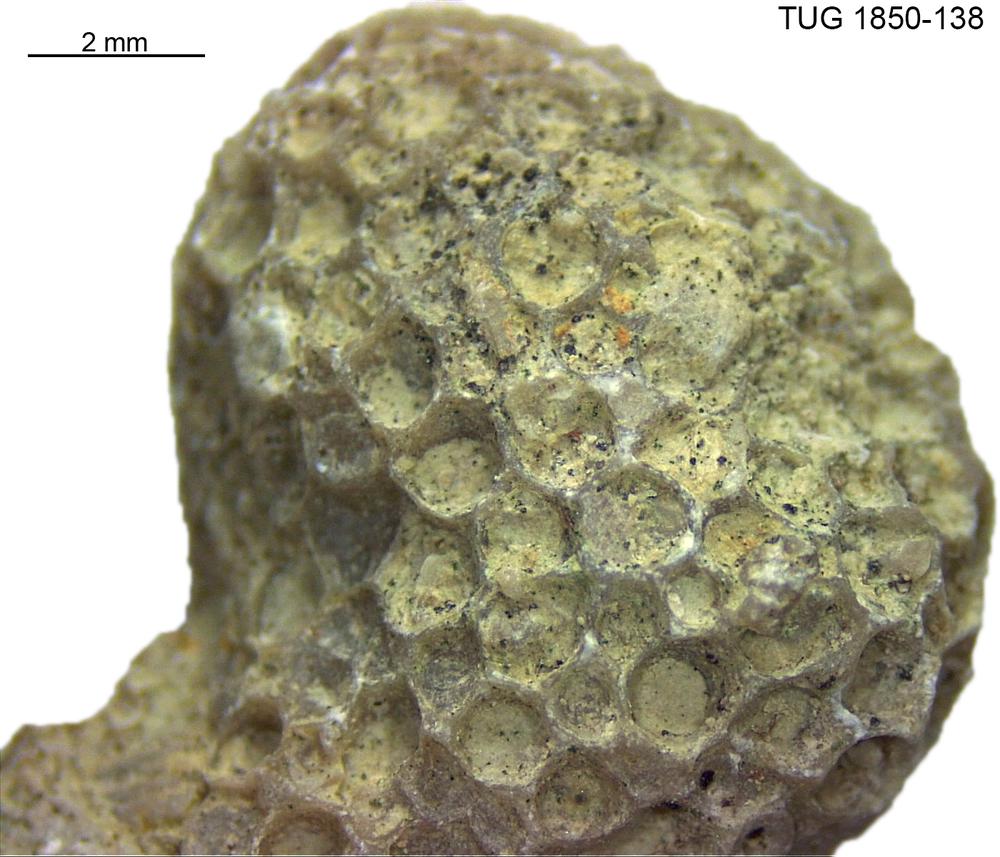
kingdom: Animalia
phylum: Cnidaria
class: Anthozoa
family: Favositidae
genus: Favosites
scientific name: Favosites
